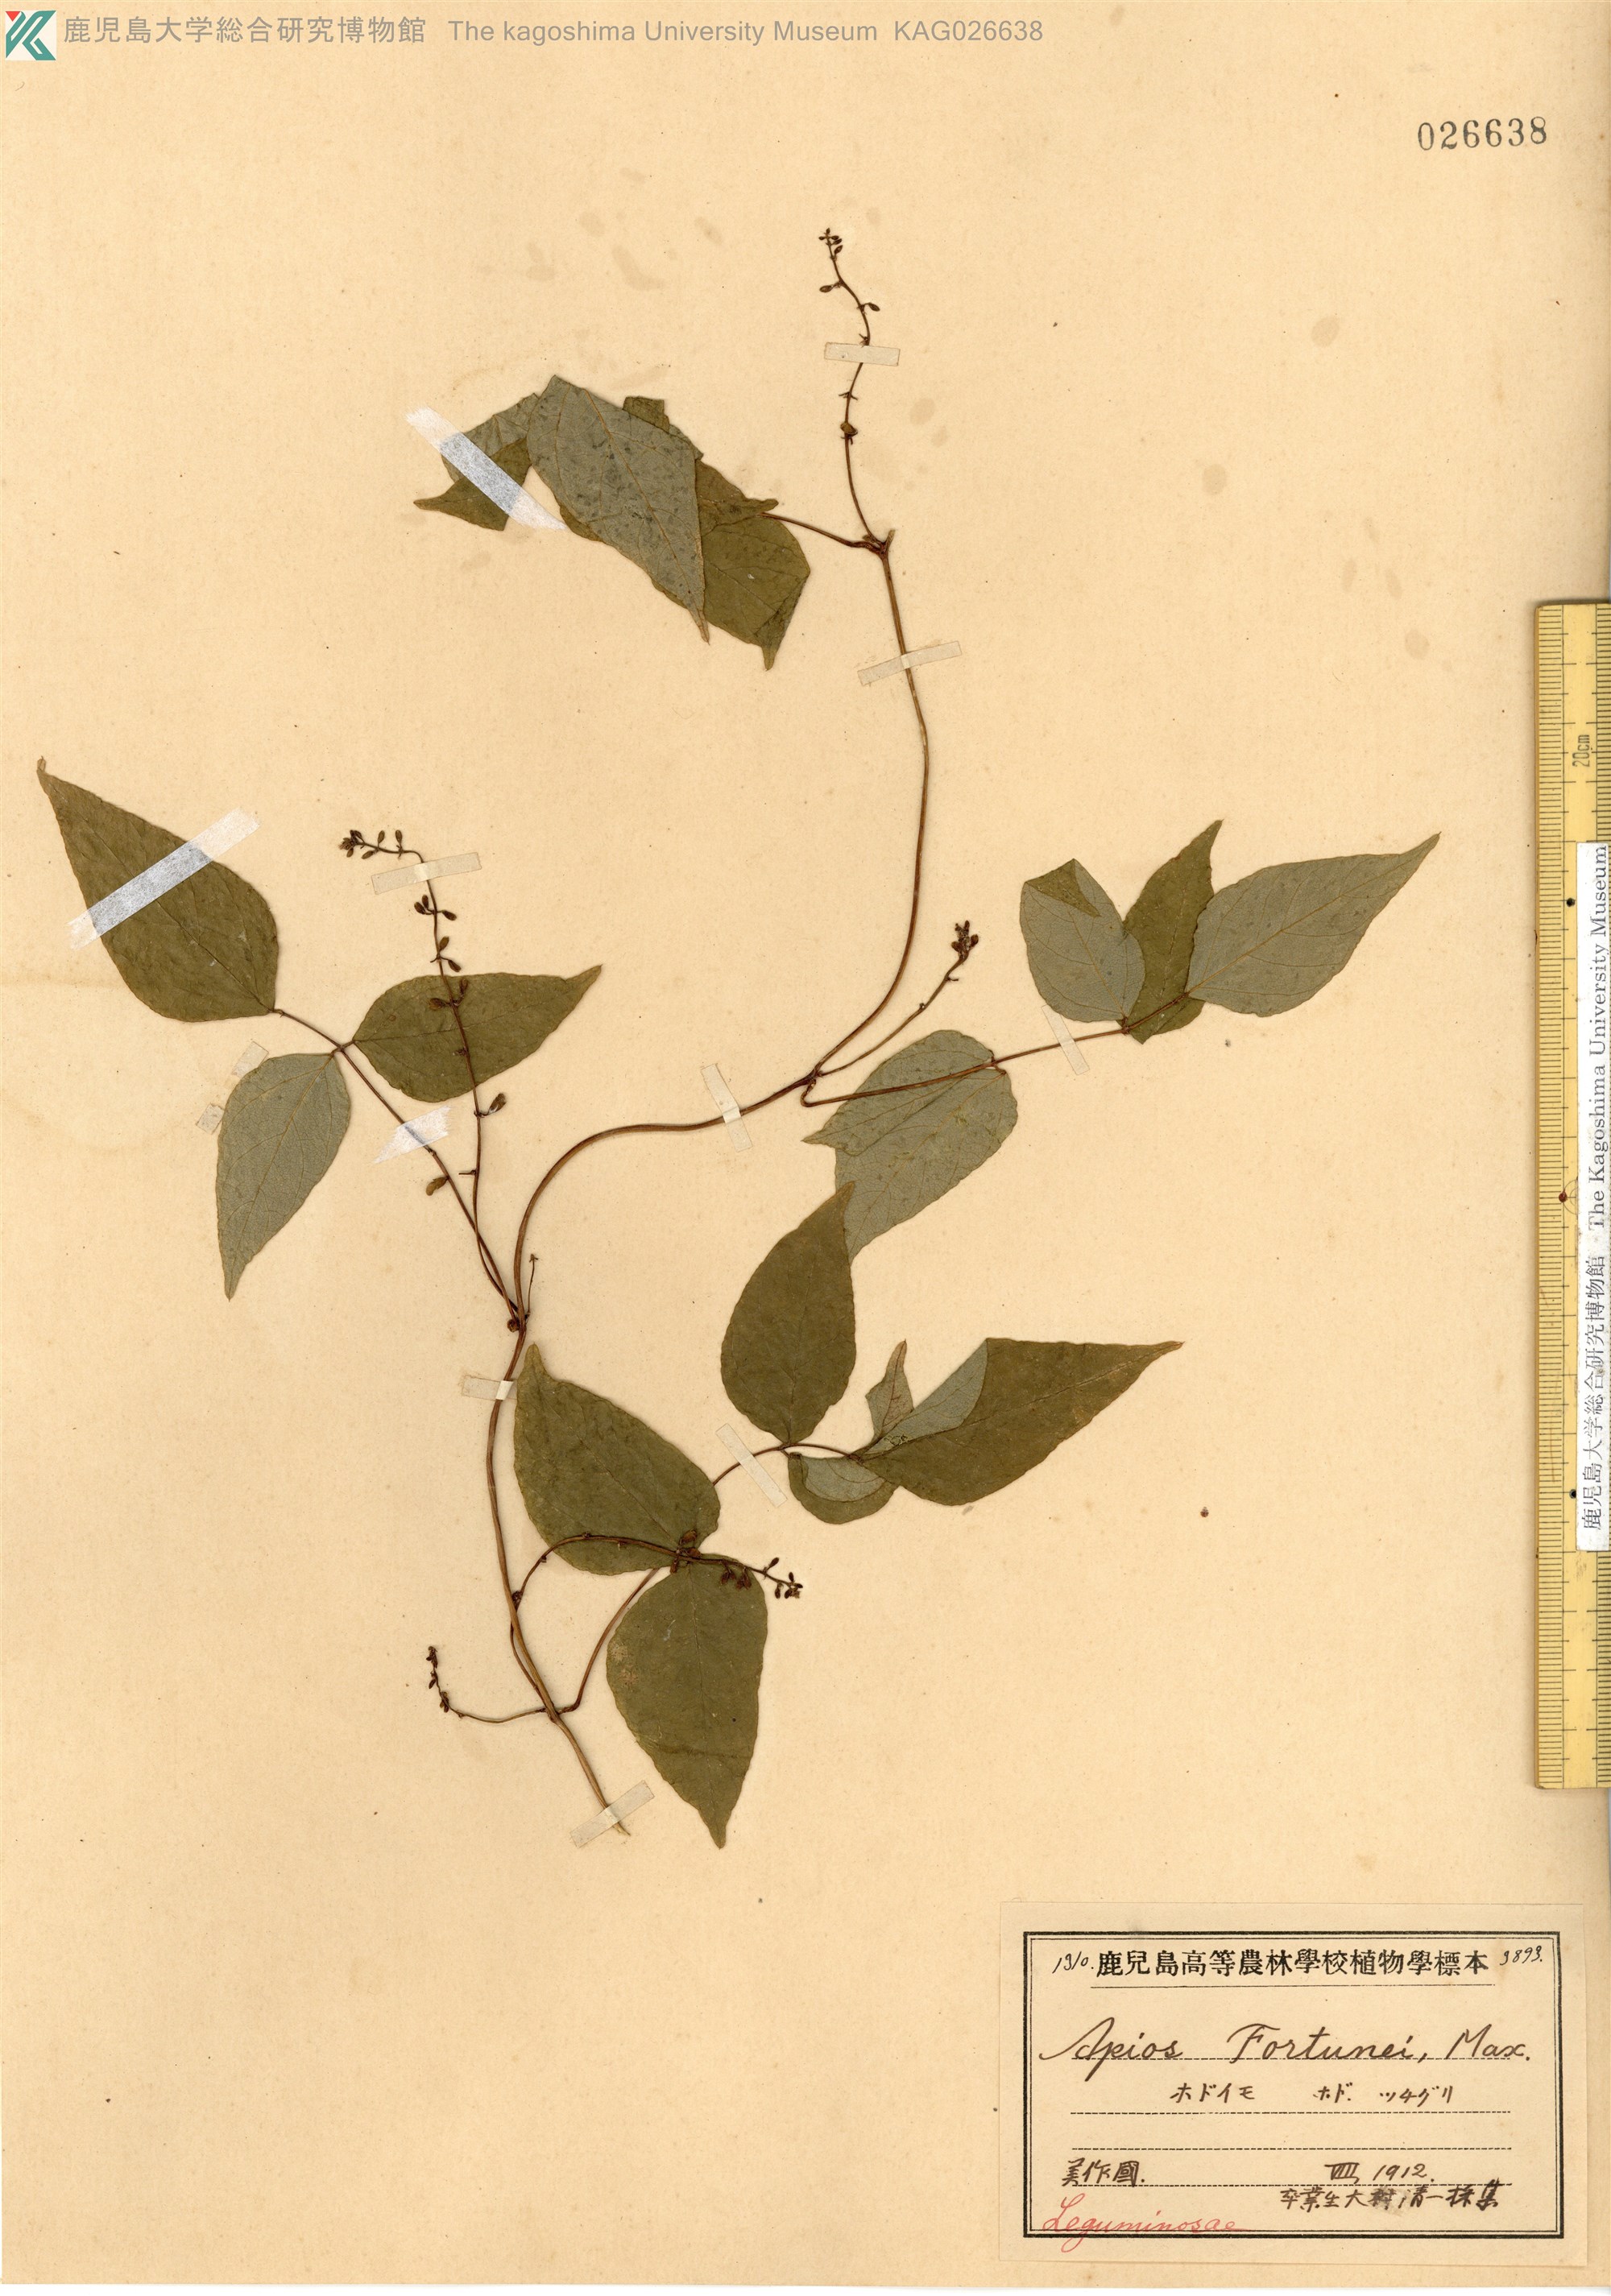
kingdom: Plantae
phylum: Tracheophyta
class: Magnoliopsida
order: Fabales
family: Fabaceae
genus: Apios
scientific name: Apios fortunei
